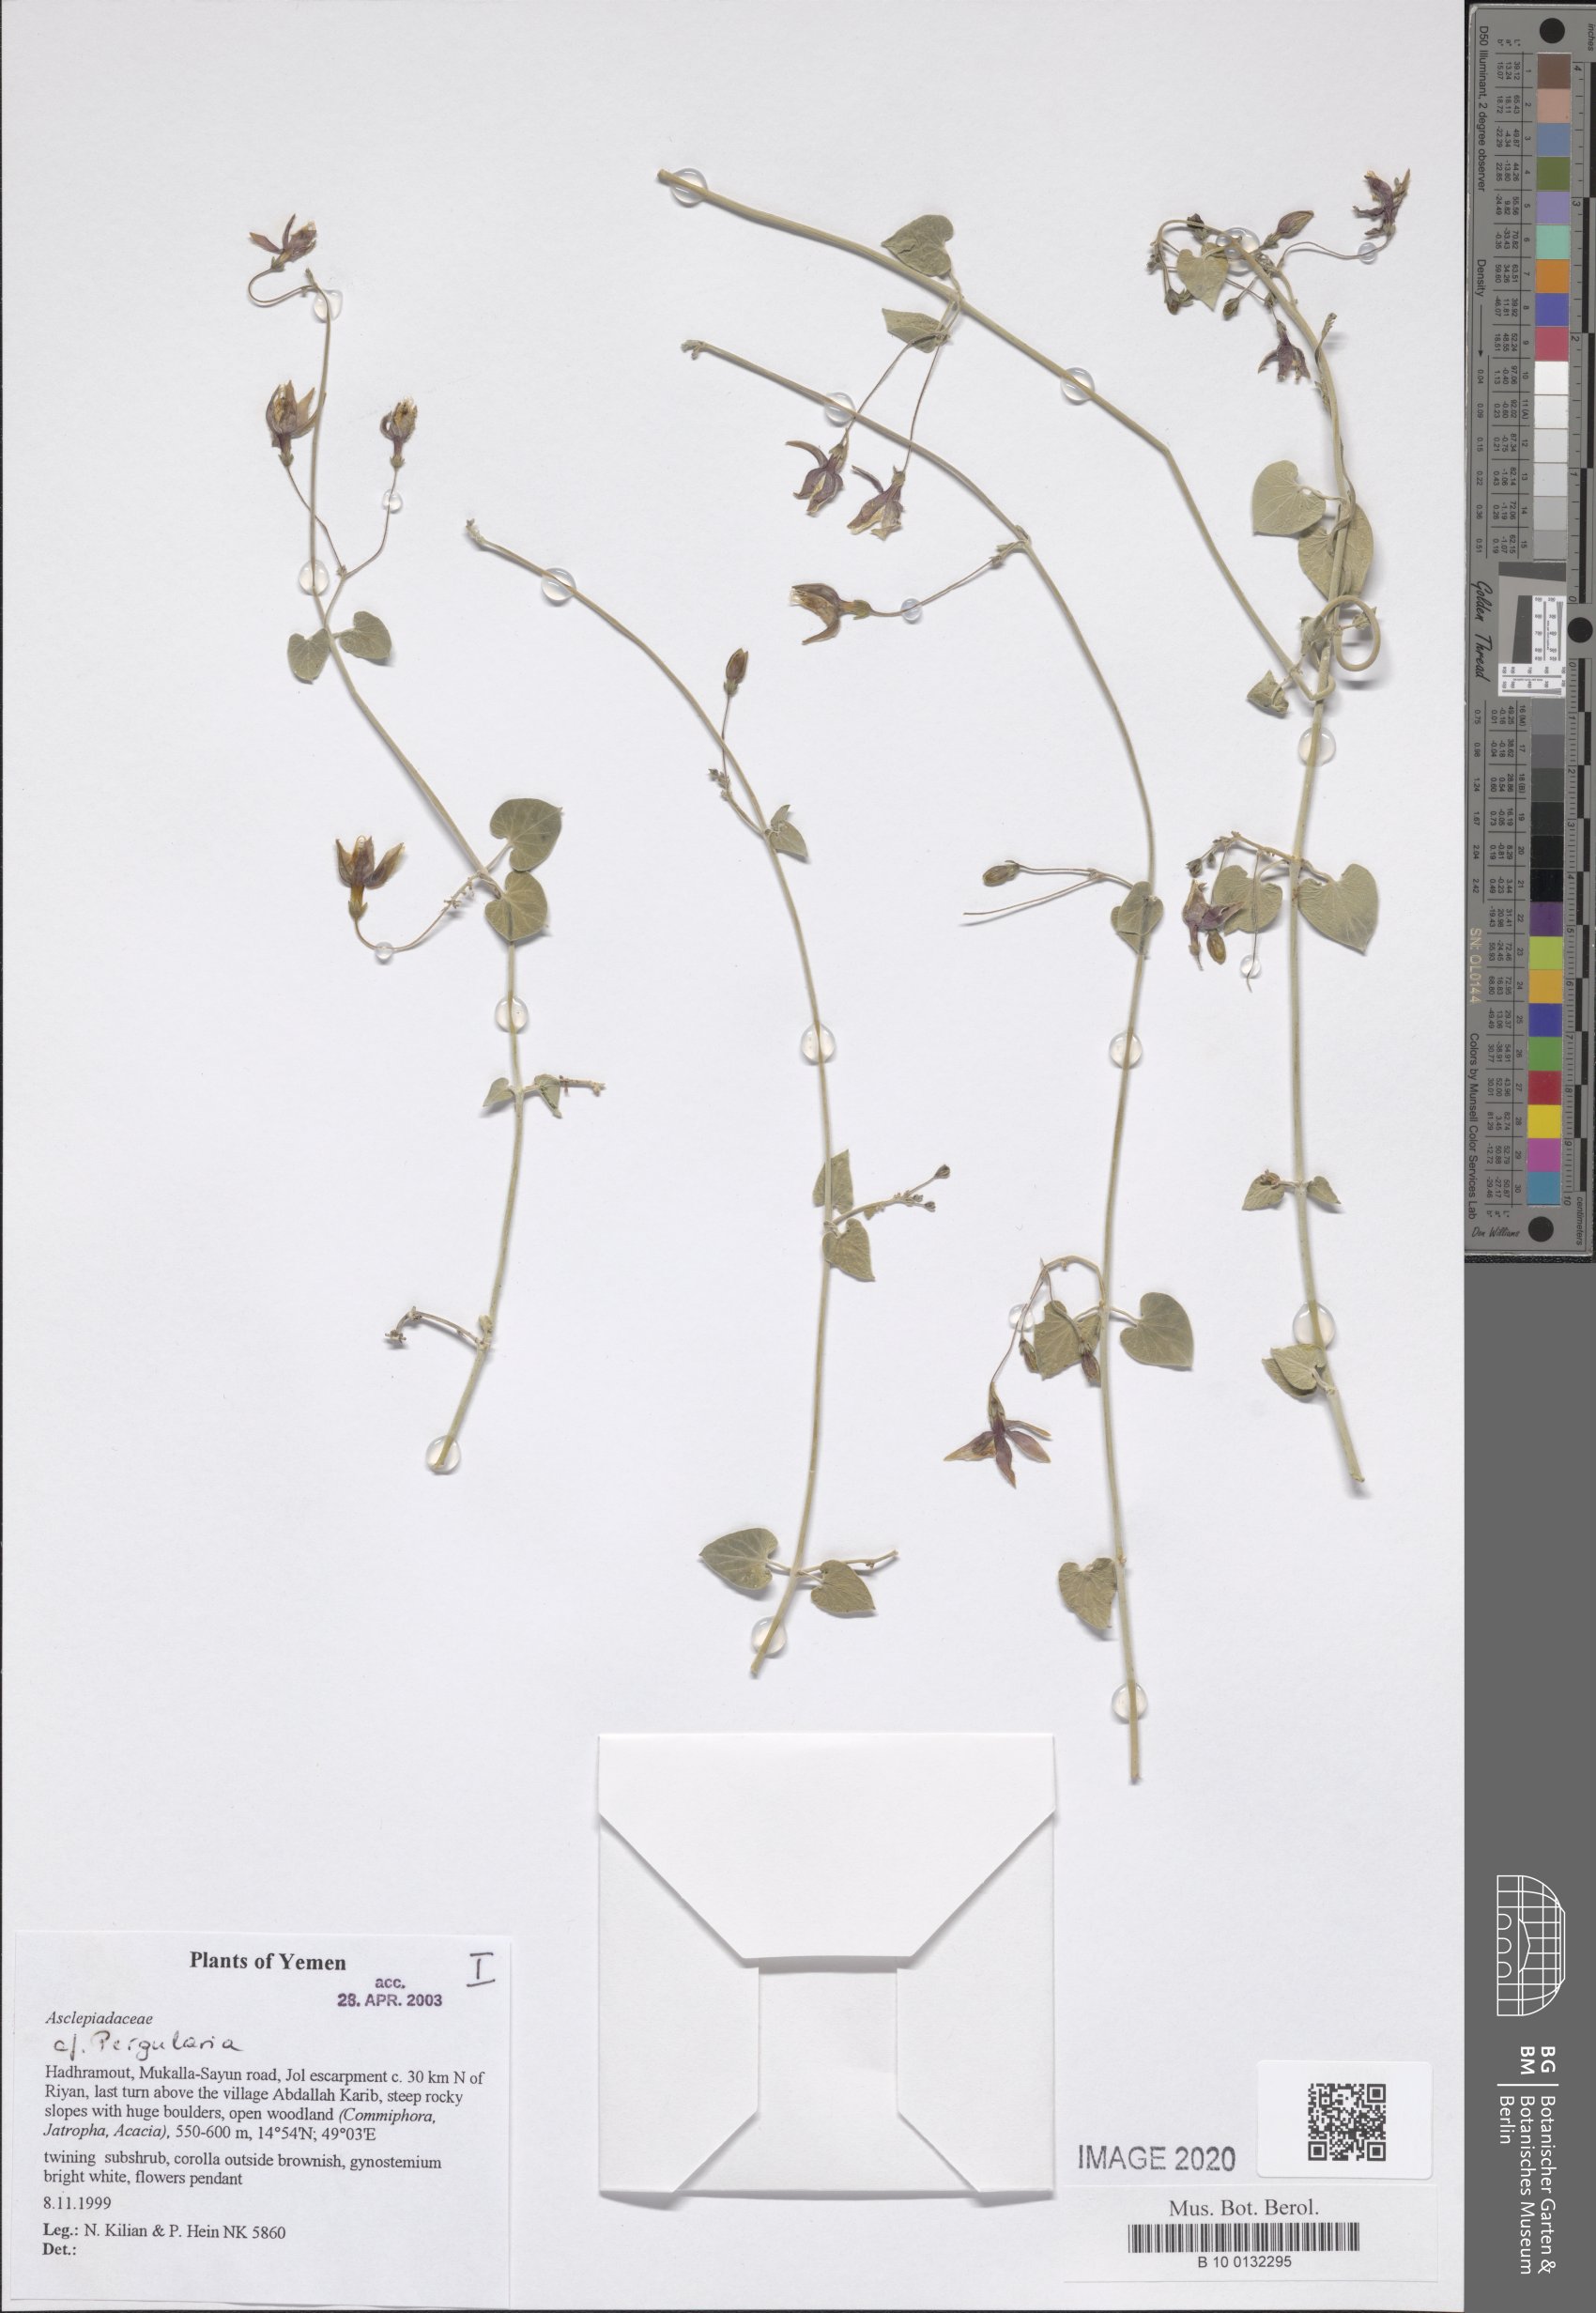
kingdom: Plantae
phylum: Tracheophyta
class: Magnoliopsida
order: Gentianales
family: Apocynaceae
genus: Pergularia
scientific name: Pergularia tomentosa
